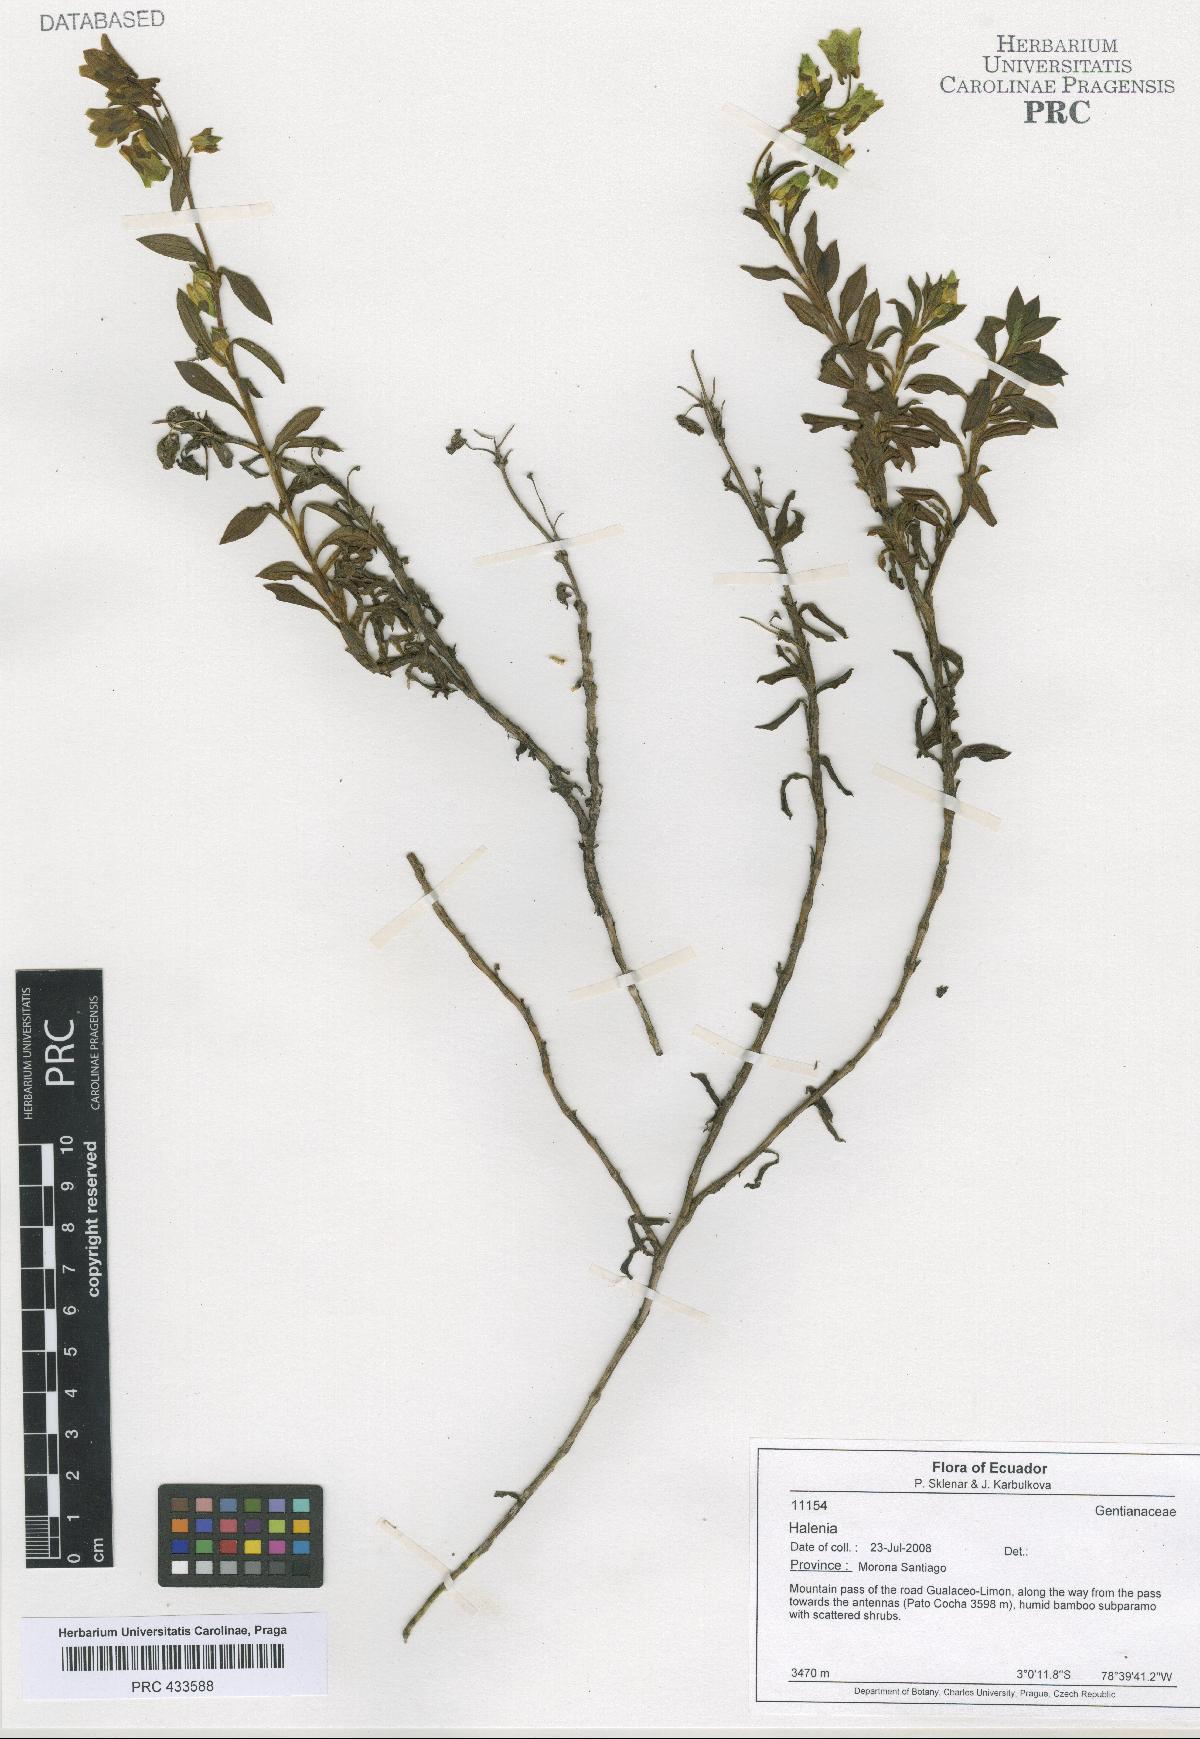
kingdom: Plantae
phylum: Tracheophyta
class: Magnoliopsida
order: Gentianales
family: Gentianaceae
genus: Halenia
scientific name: Halenia
